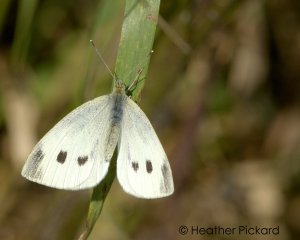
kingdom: Animalia
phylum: Arthropoda
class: Insecta
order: Lepidoptera
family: Pieridae
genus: Pieris
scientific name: Pieris rapae
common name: Cabbage White
